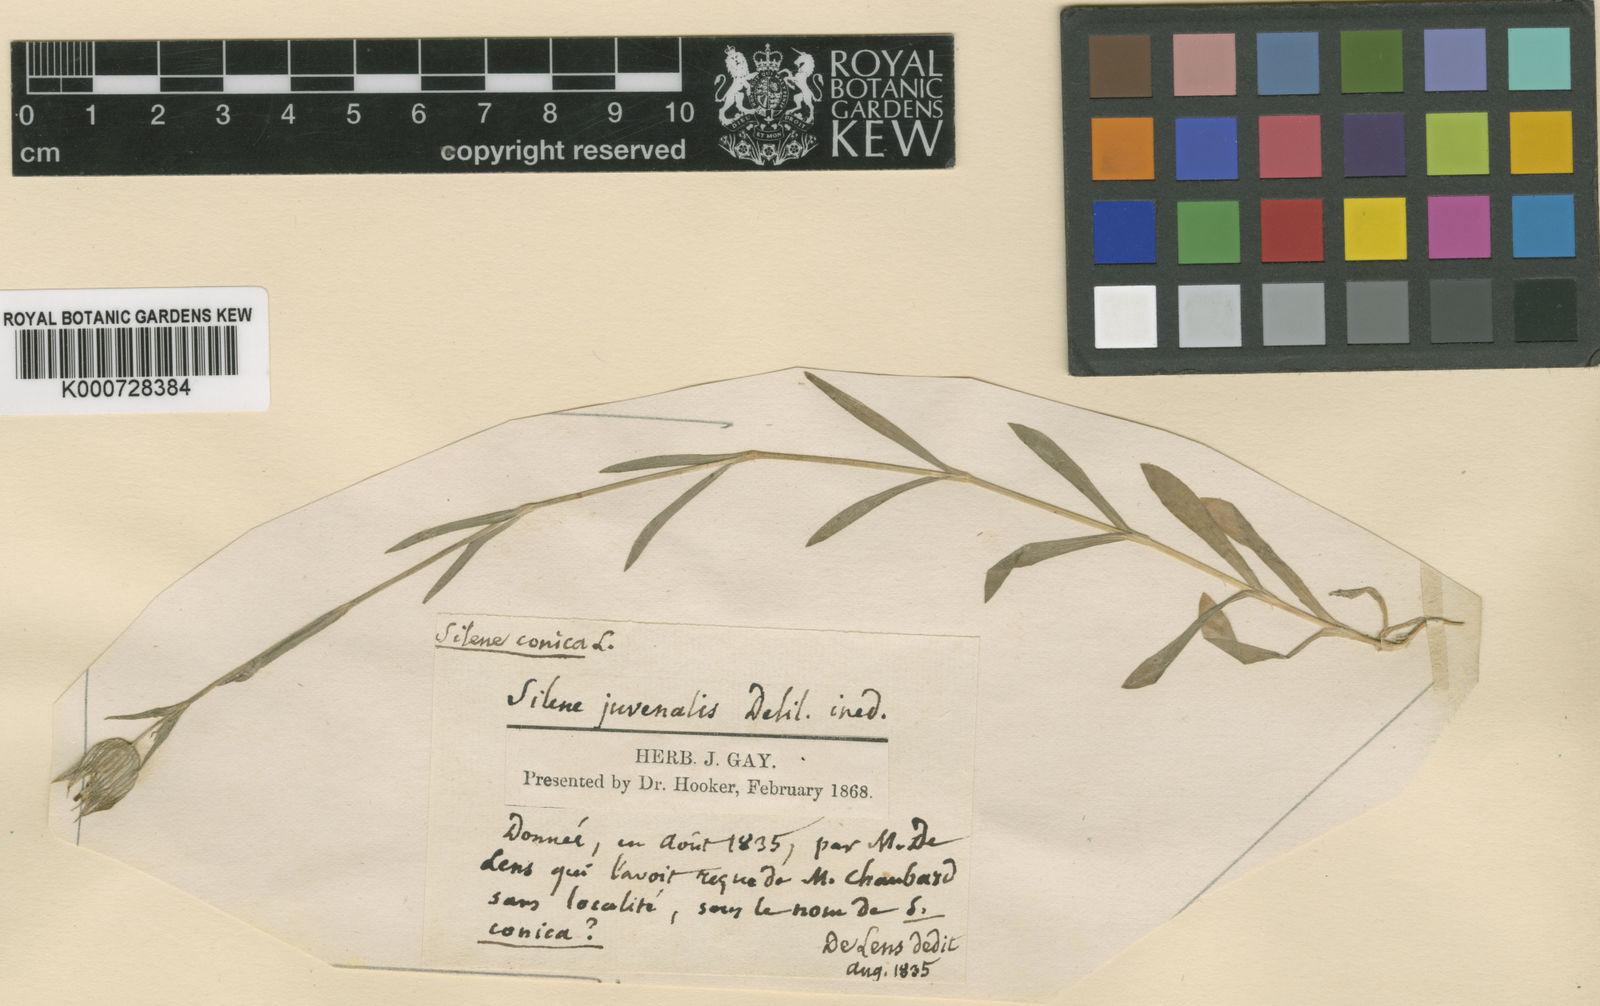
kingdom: Plantae
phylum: Tracheophyta
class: Magnoliopsida
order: Caryophyllales
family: Caryophyllaceae
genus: Silene
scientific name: Silene conica
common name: Sand catchfly
